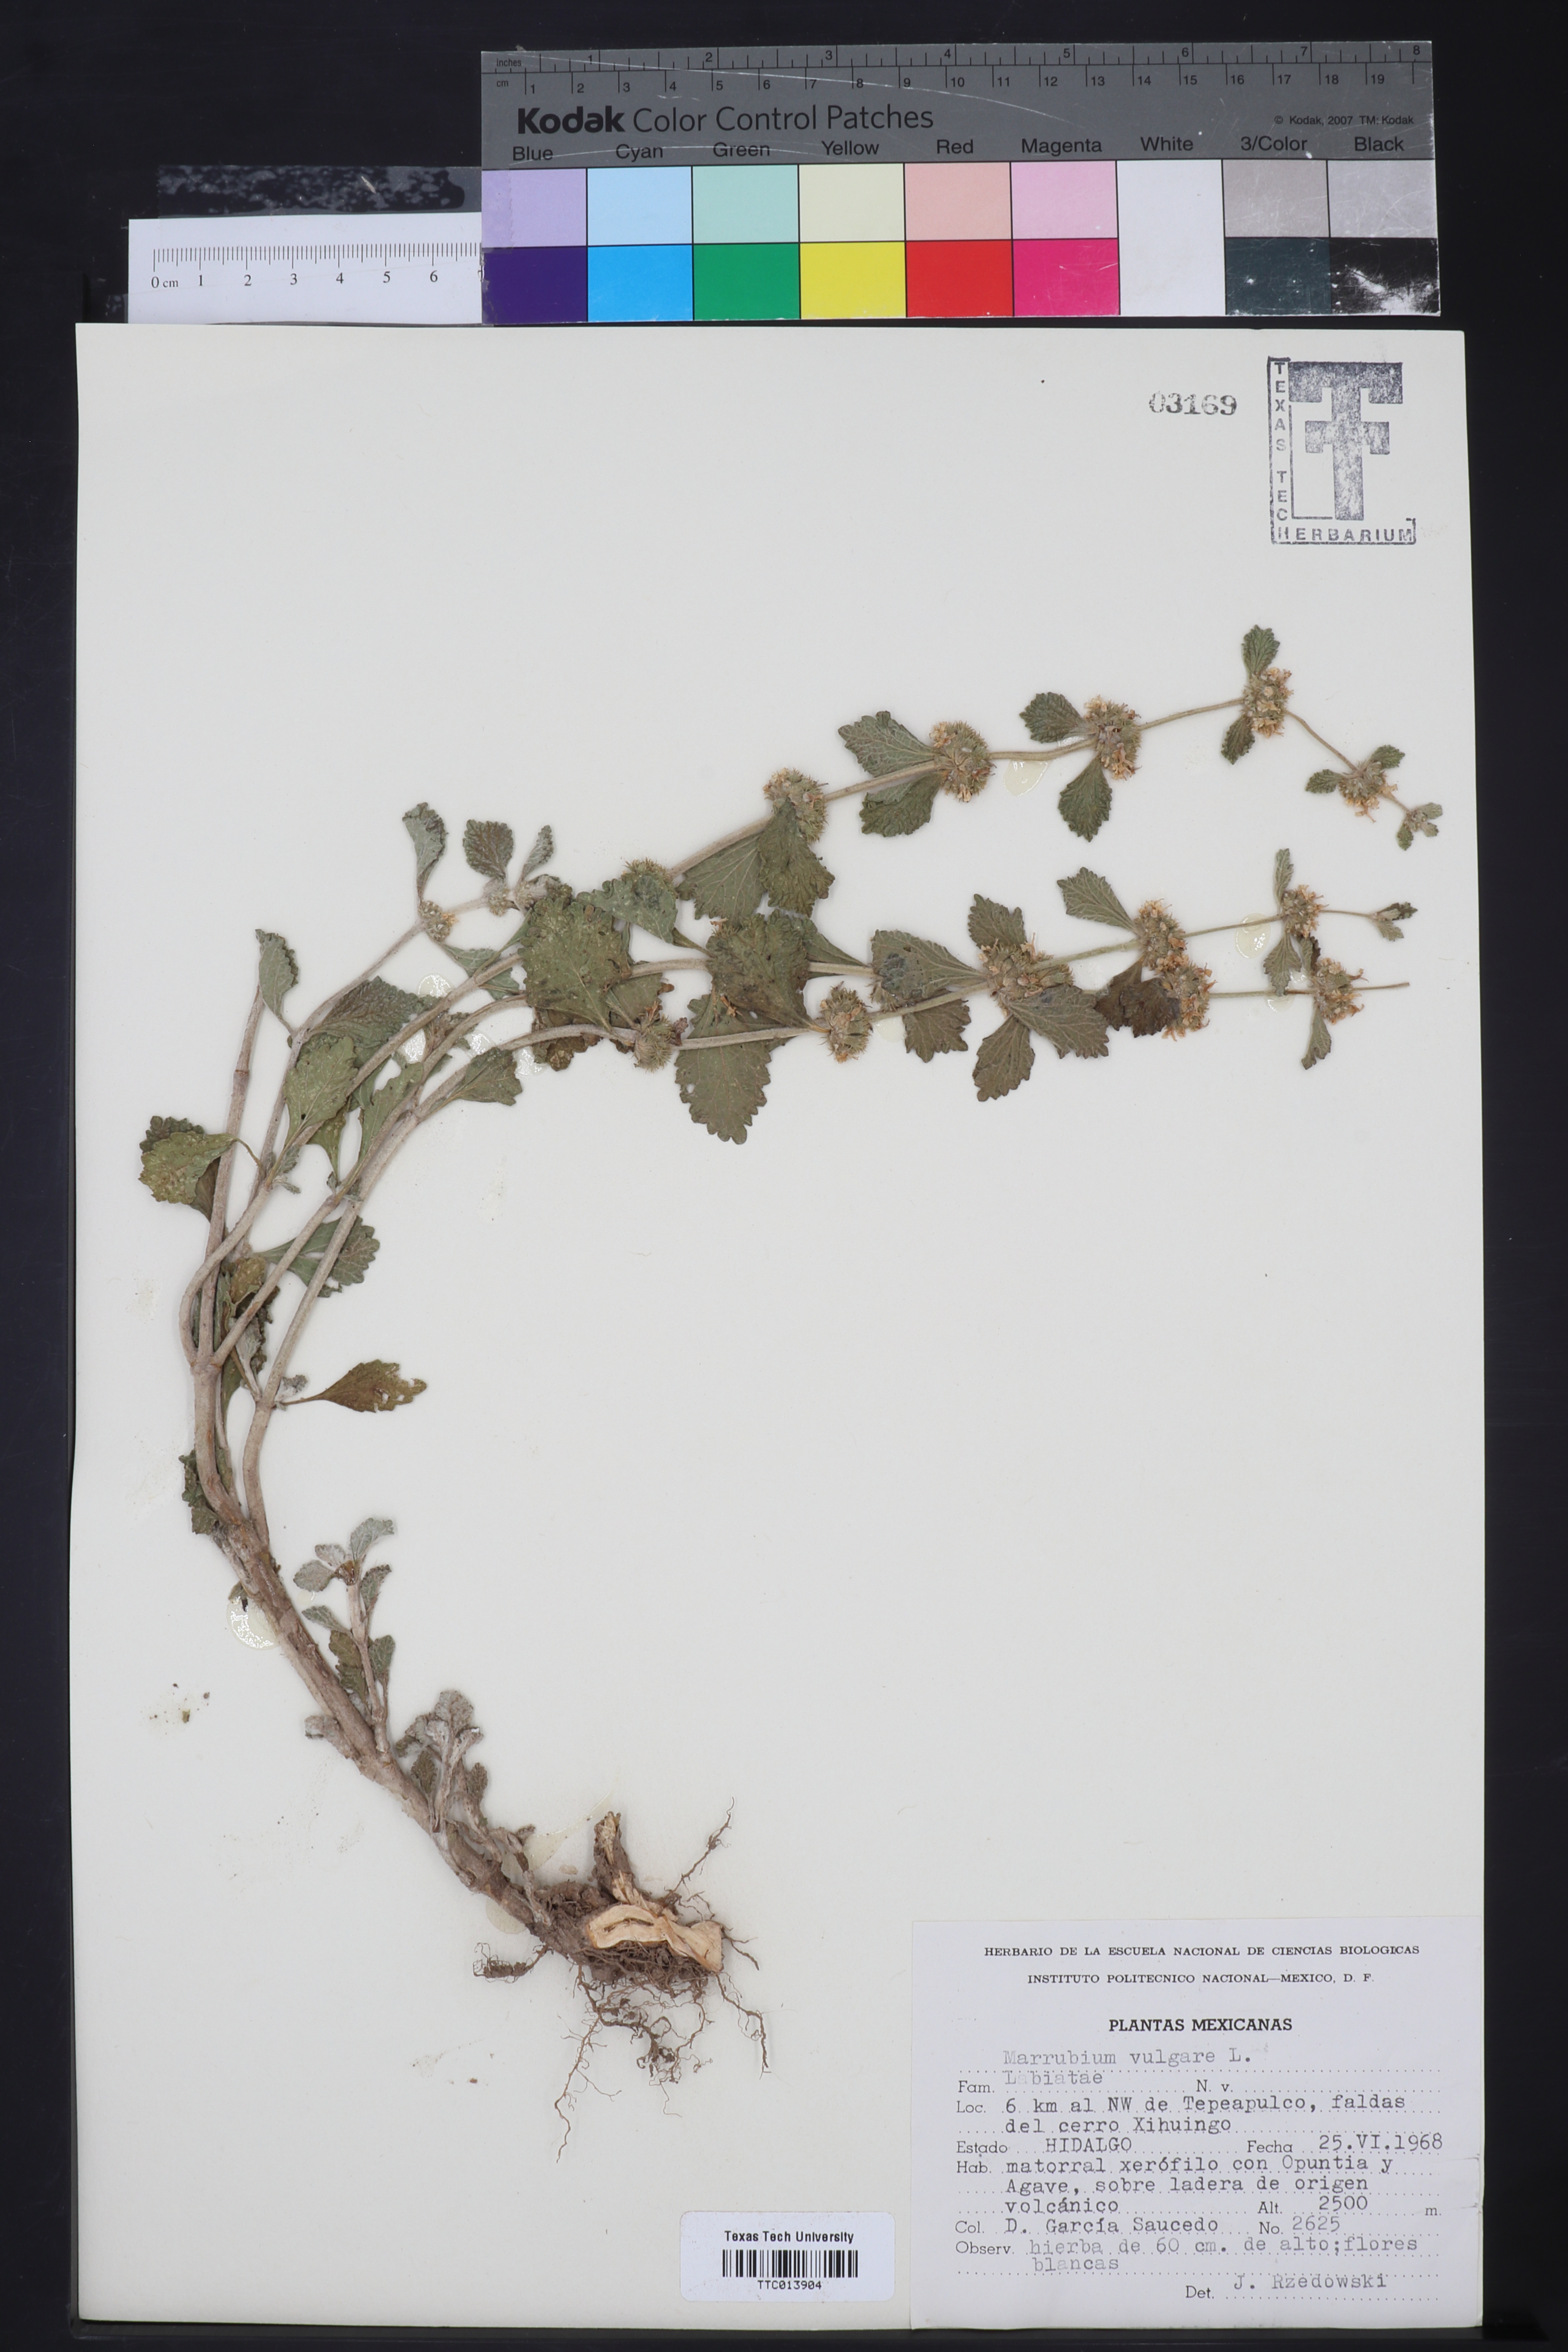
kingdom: Plantae
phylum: Tracheophyta
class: Magnoliopsida
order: Lamiales
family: Lamiaceae
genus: Marrubium
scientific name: Marrubium vulgare
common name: Horehound
